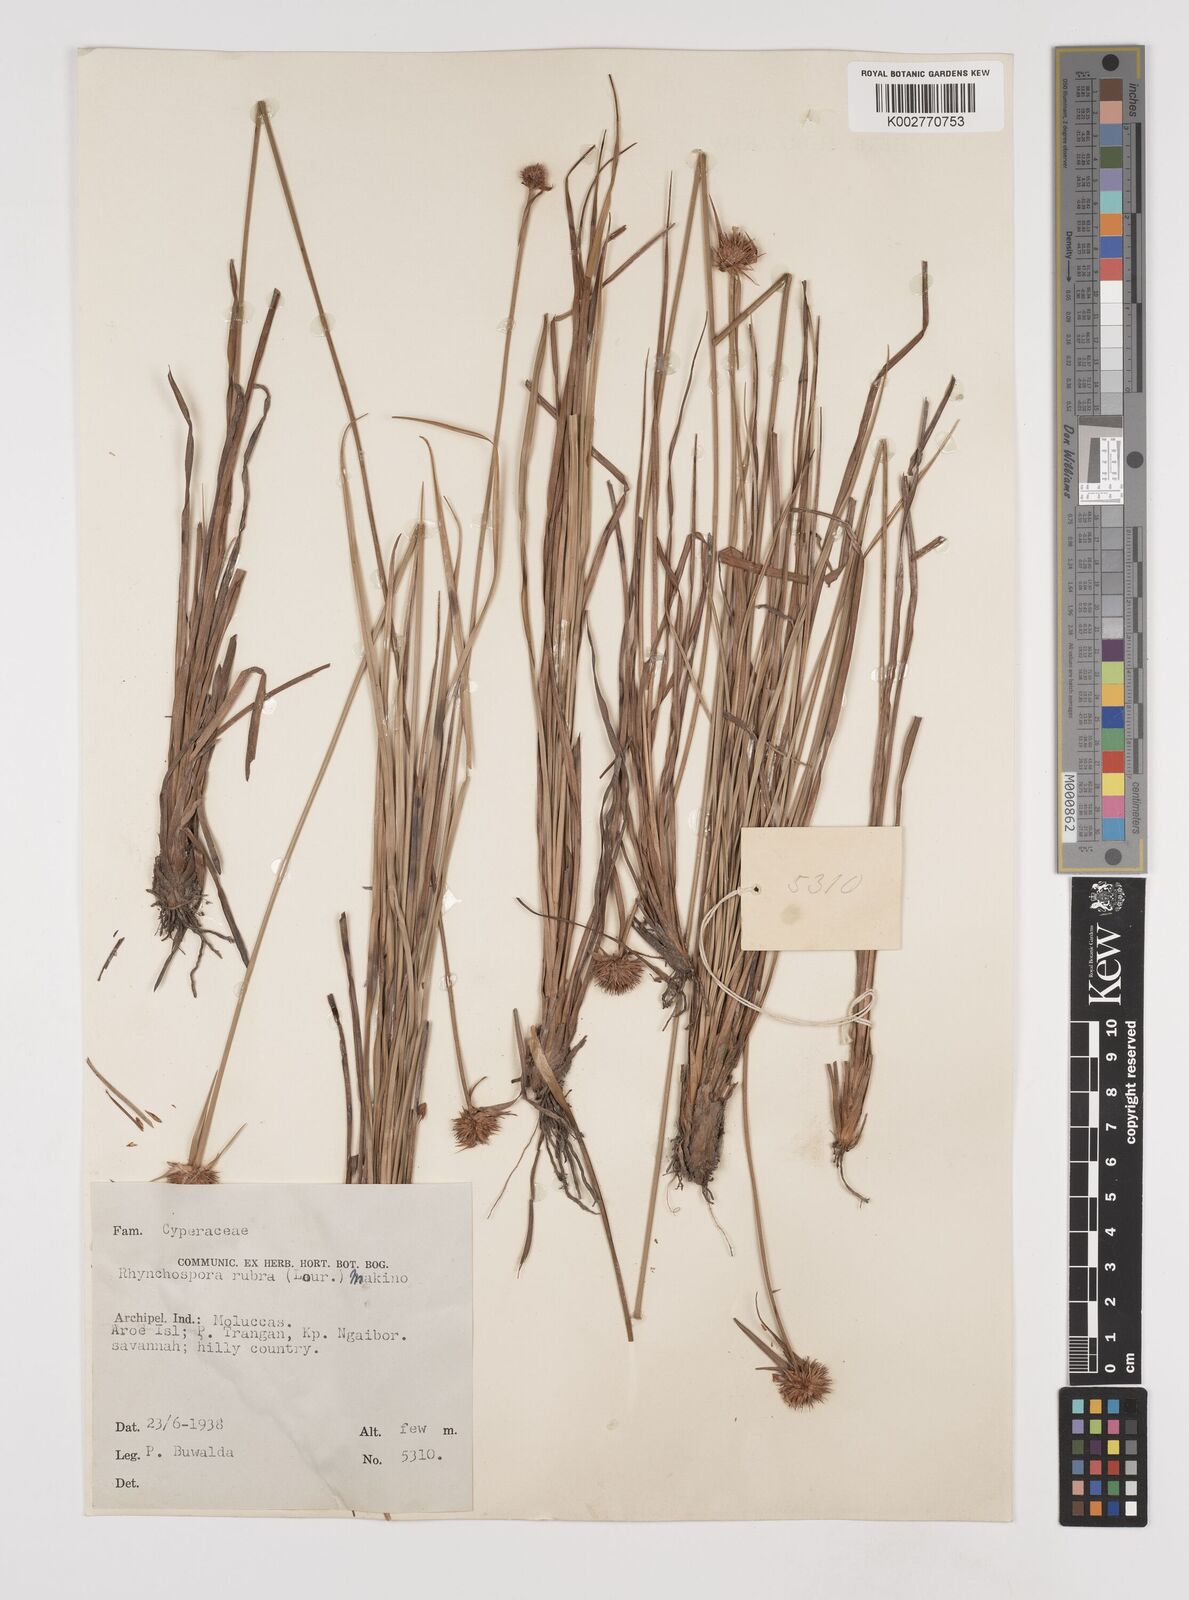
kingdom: Plantae
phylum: Tracheophyta
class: Liliopsida
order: Poales
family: Cyperaceae
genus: Rhynchospora
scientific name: Rhynchospora rubra
